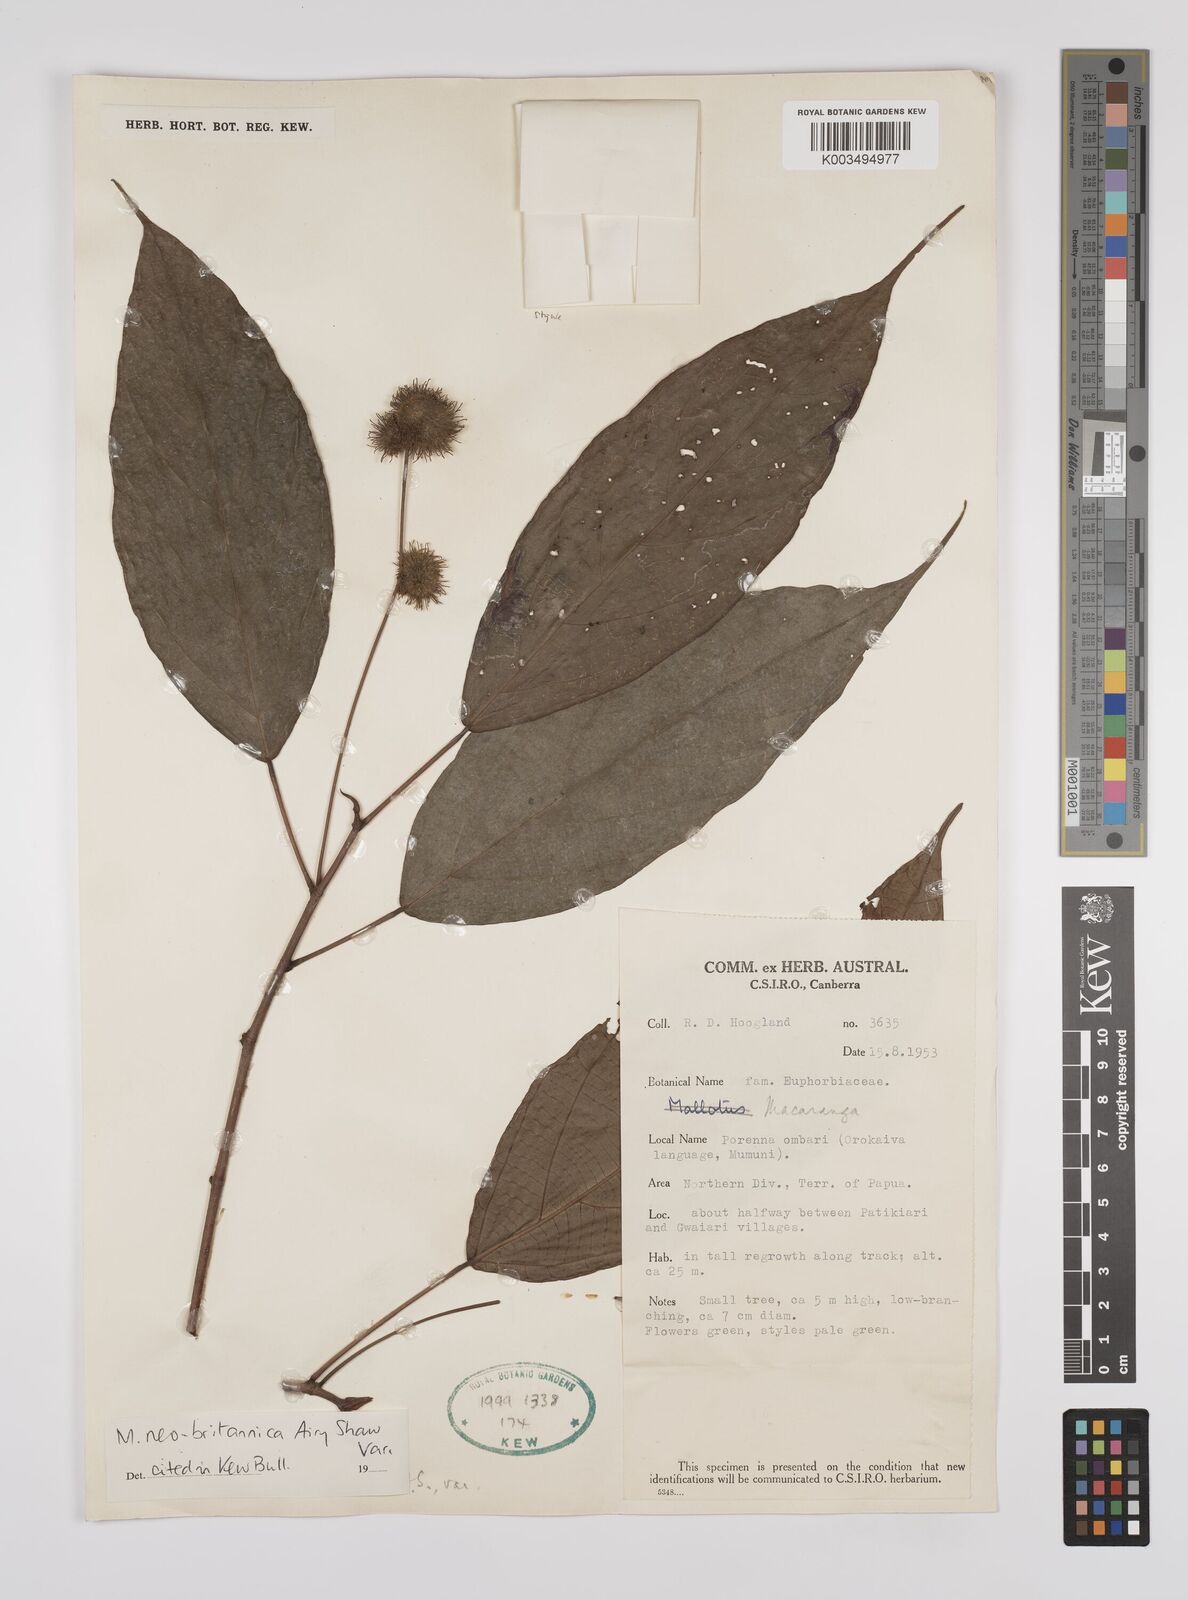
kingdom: Plantae
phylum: Tracheophyta
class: Magnoliopsida
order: Malpighiales
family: Euphorbiaceae
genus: Macaranga
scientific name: Macaranga neobritannica
